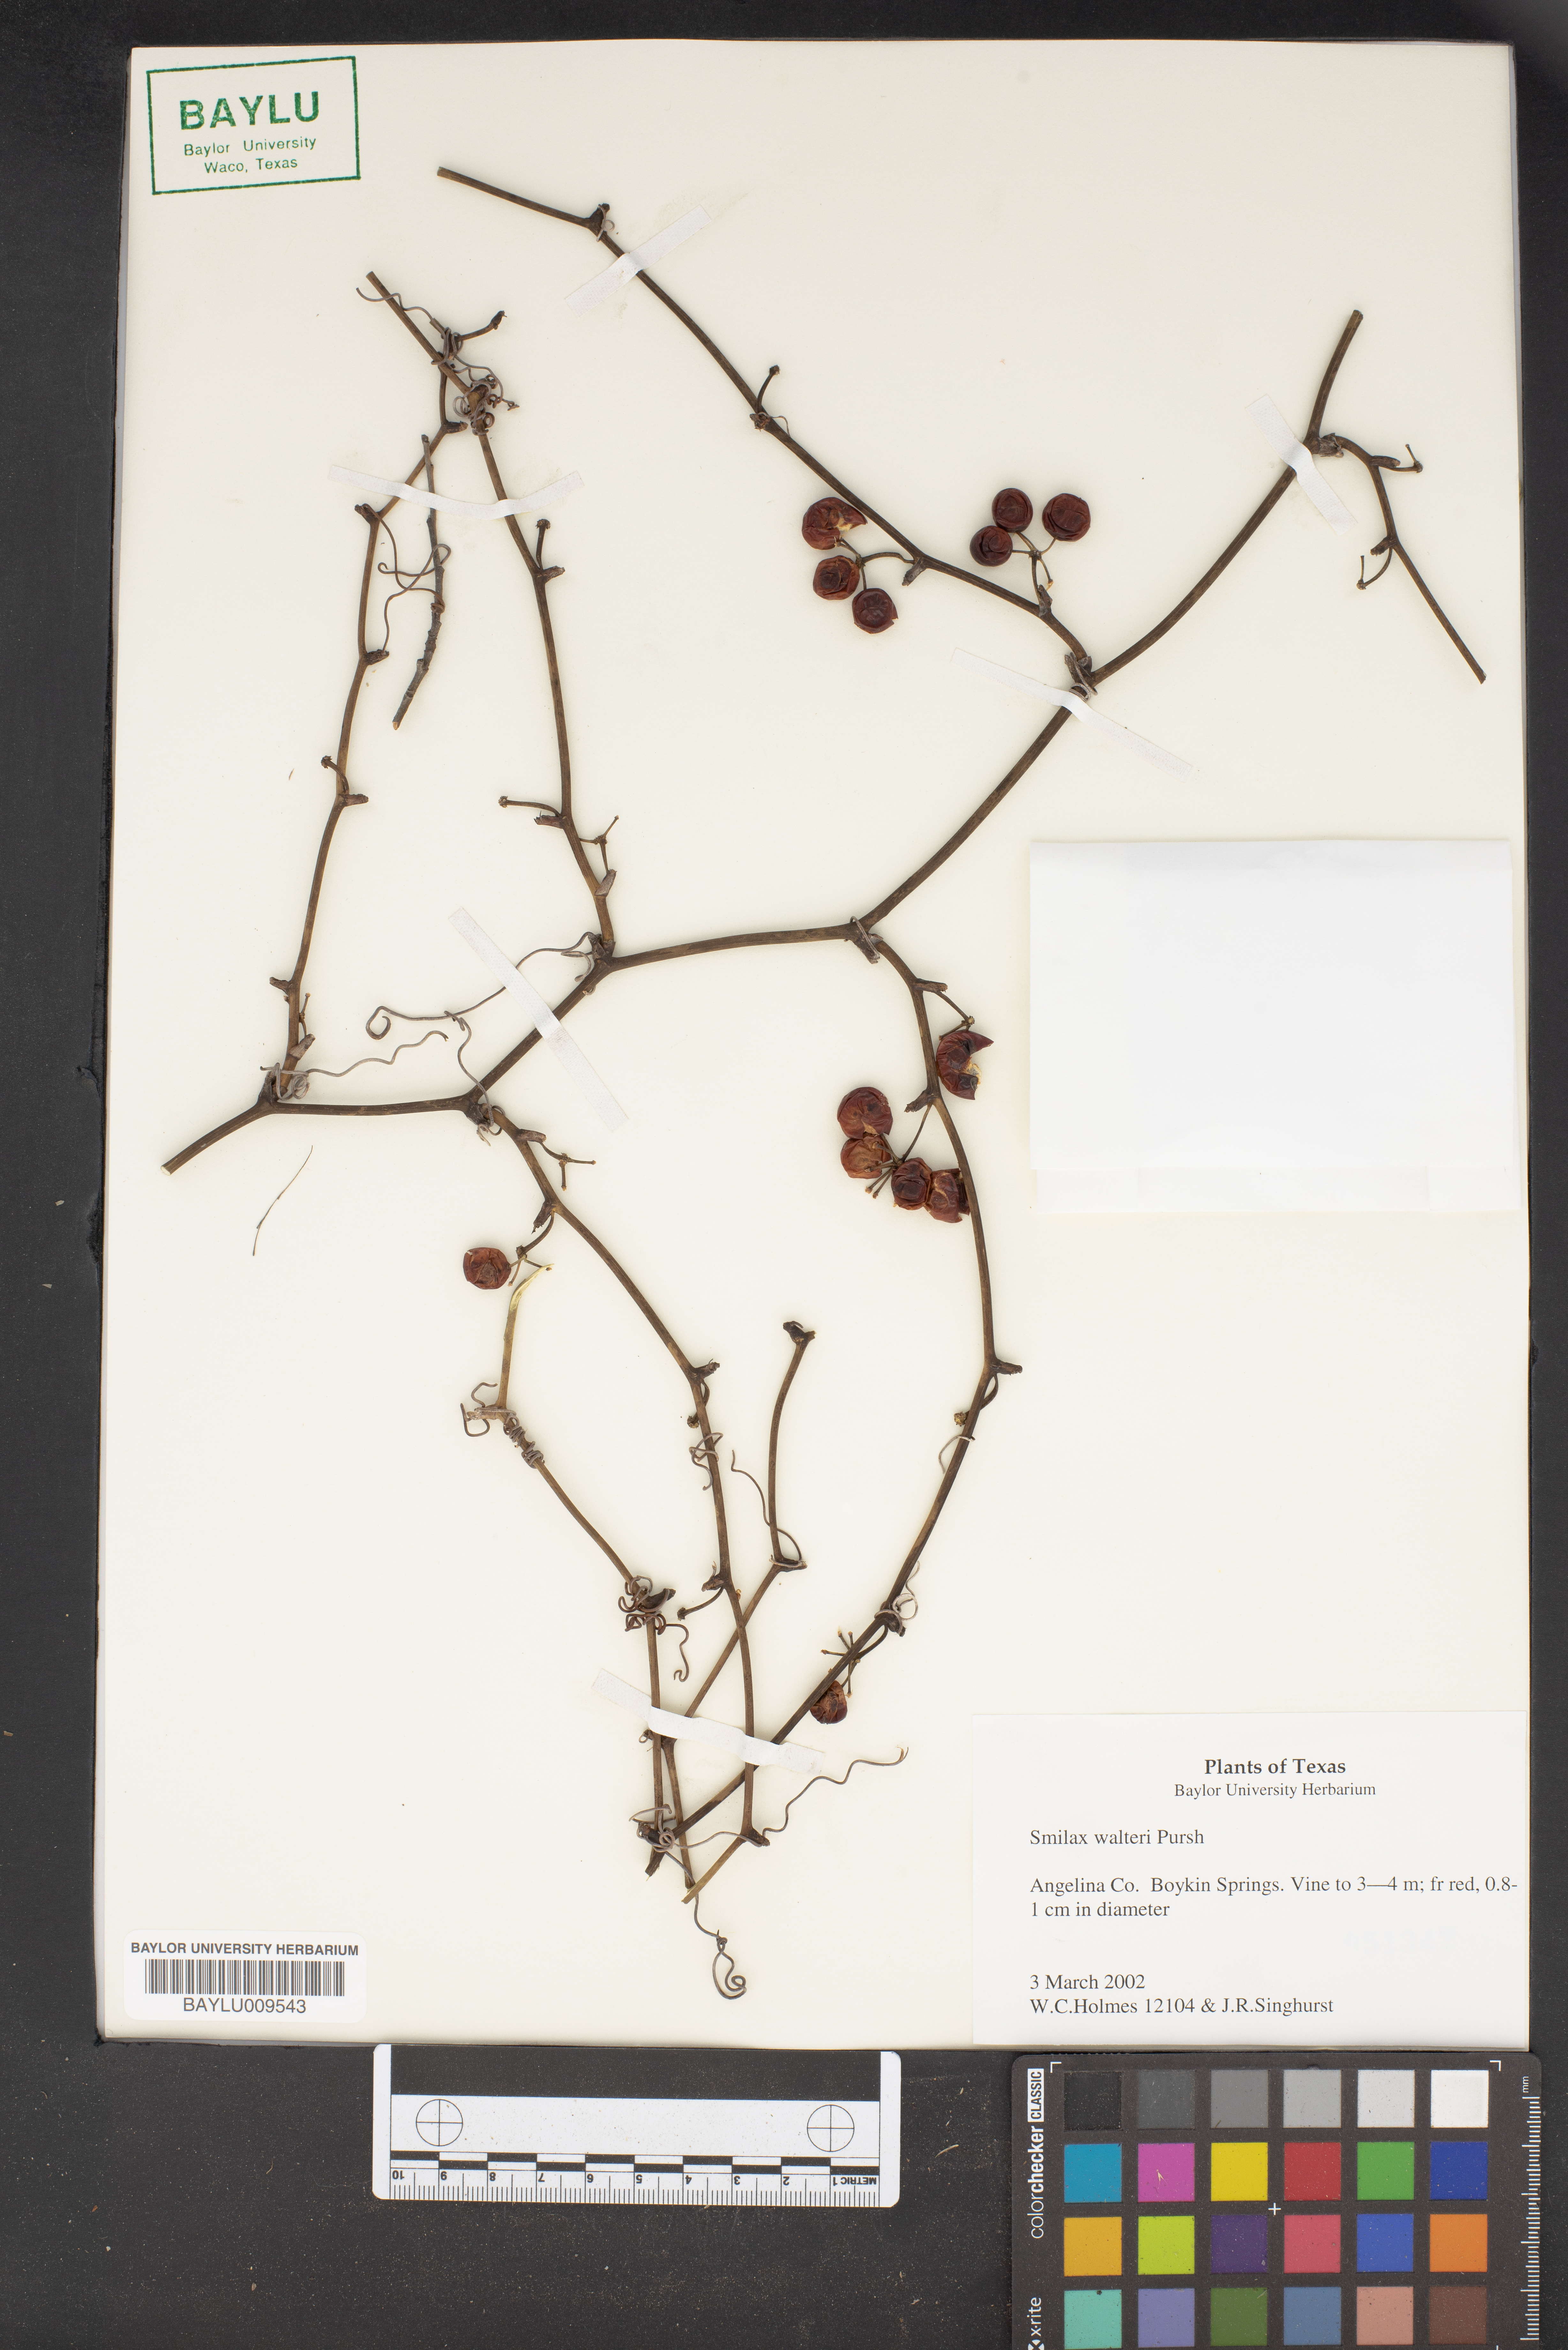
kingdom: Plantae
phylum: Tracheophyta
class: Liliopsida
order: Liliales
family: Smilacaceae
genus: Smilax
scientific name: Smilax walteri
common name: Coral greenbrier
